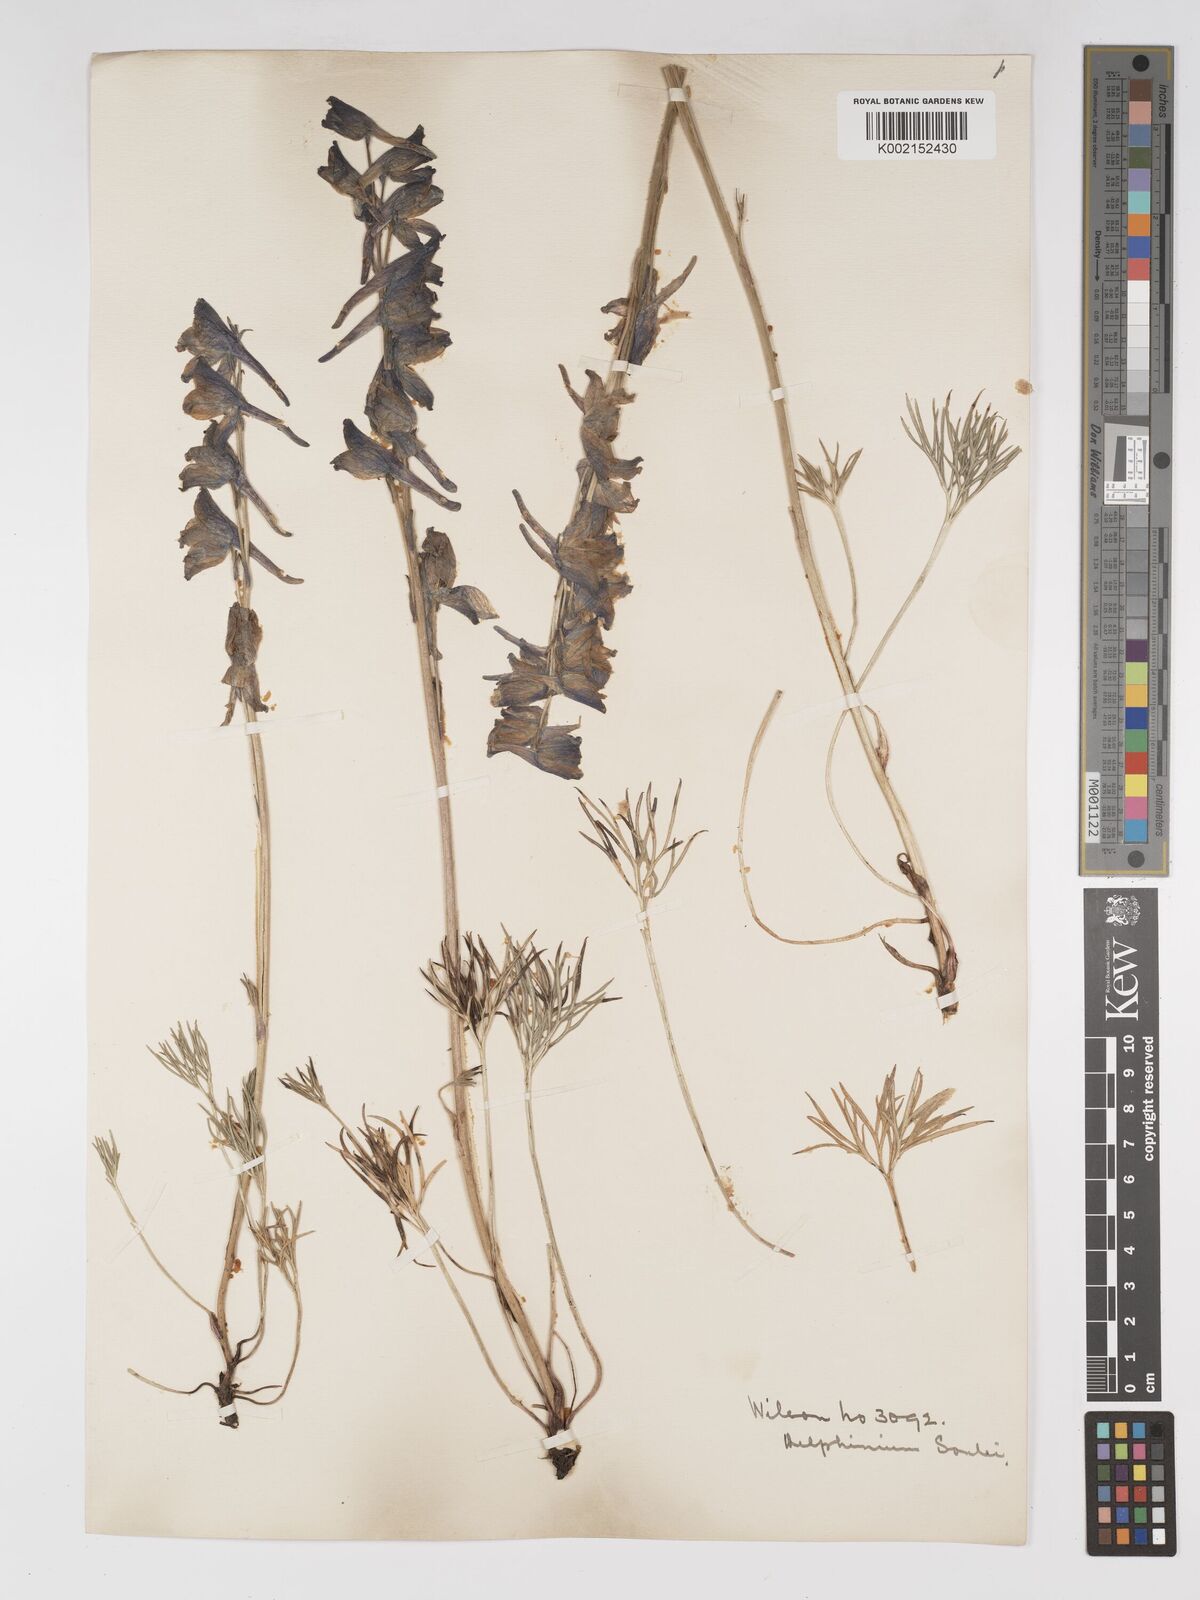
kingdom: Plantae
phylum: Tracheophyta
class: Magnoliopsida
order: Ranunculales
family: Ranunculaceae
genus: Delphinium
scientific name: Delphinium souliei
